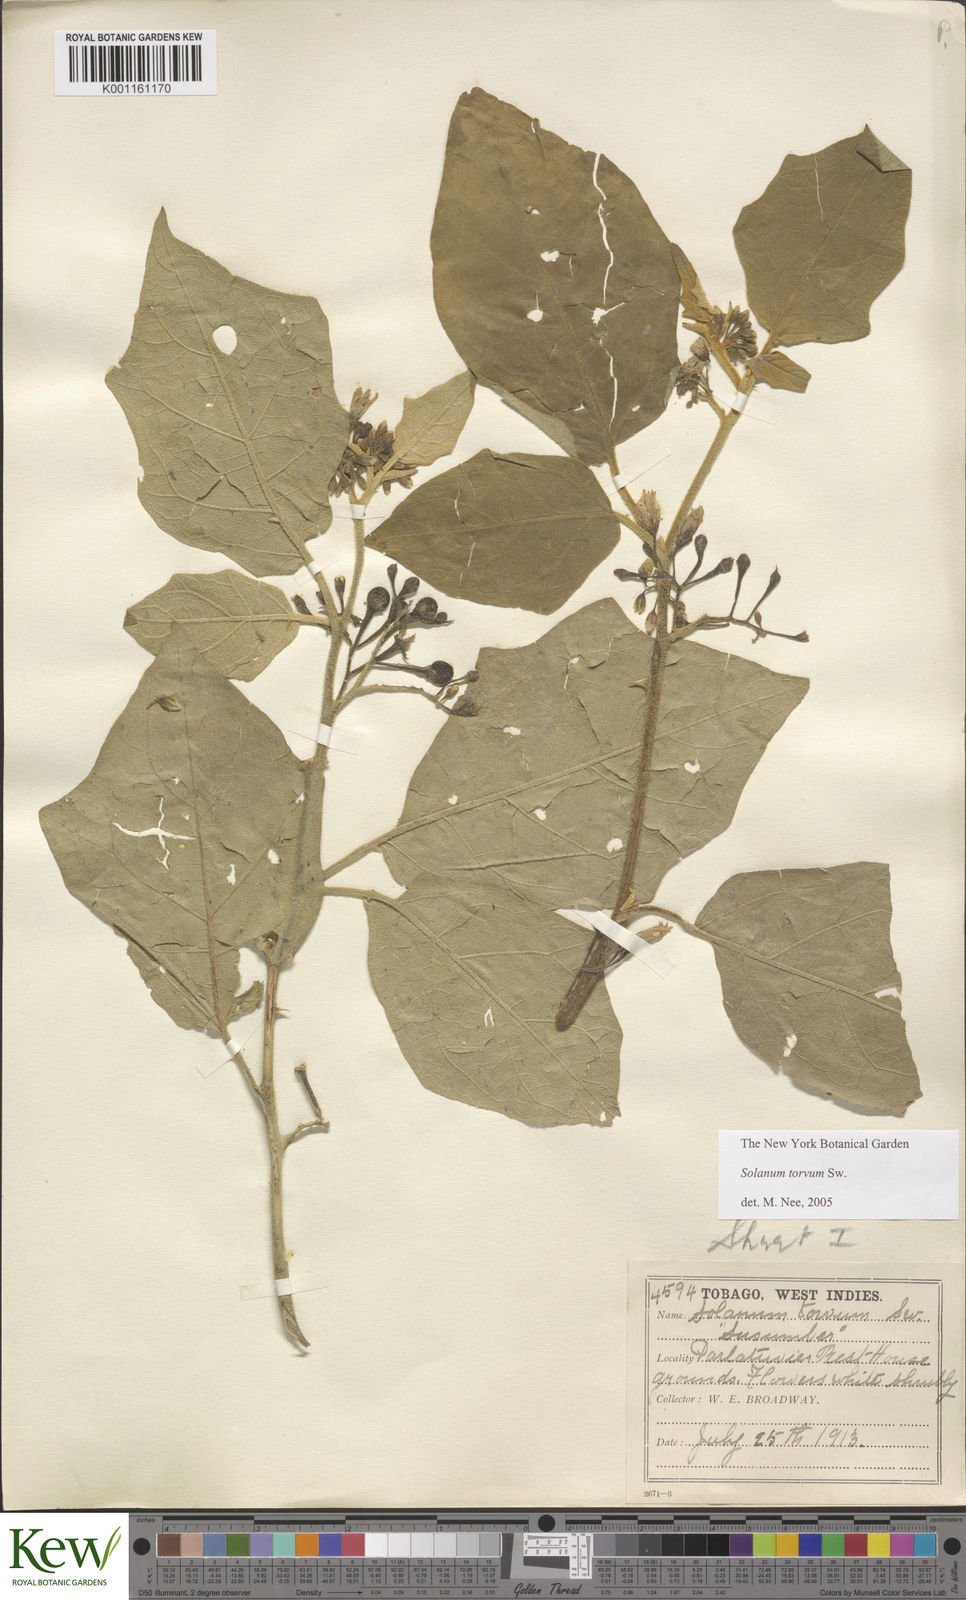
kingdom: Plantae
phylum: Tracheophyta
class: Magnoliopsida
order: Solanales
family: Solanaceae
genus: Solanum
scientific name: Solanum torvum
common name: Turkey berry
